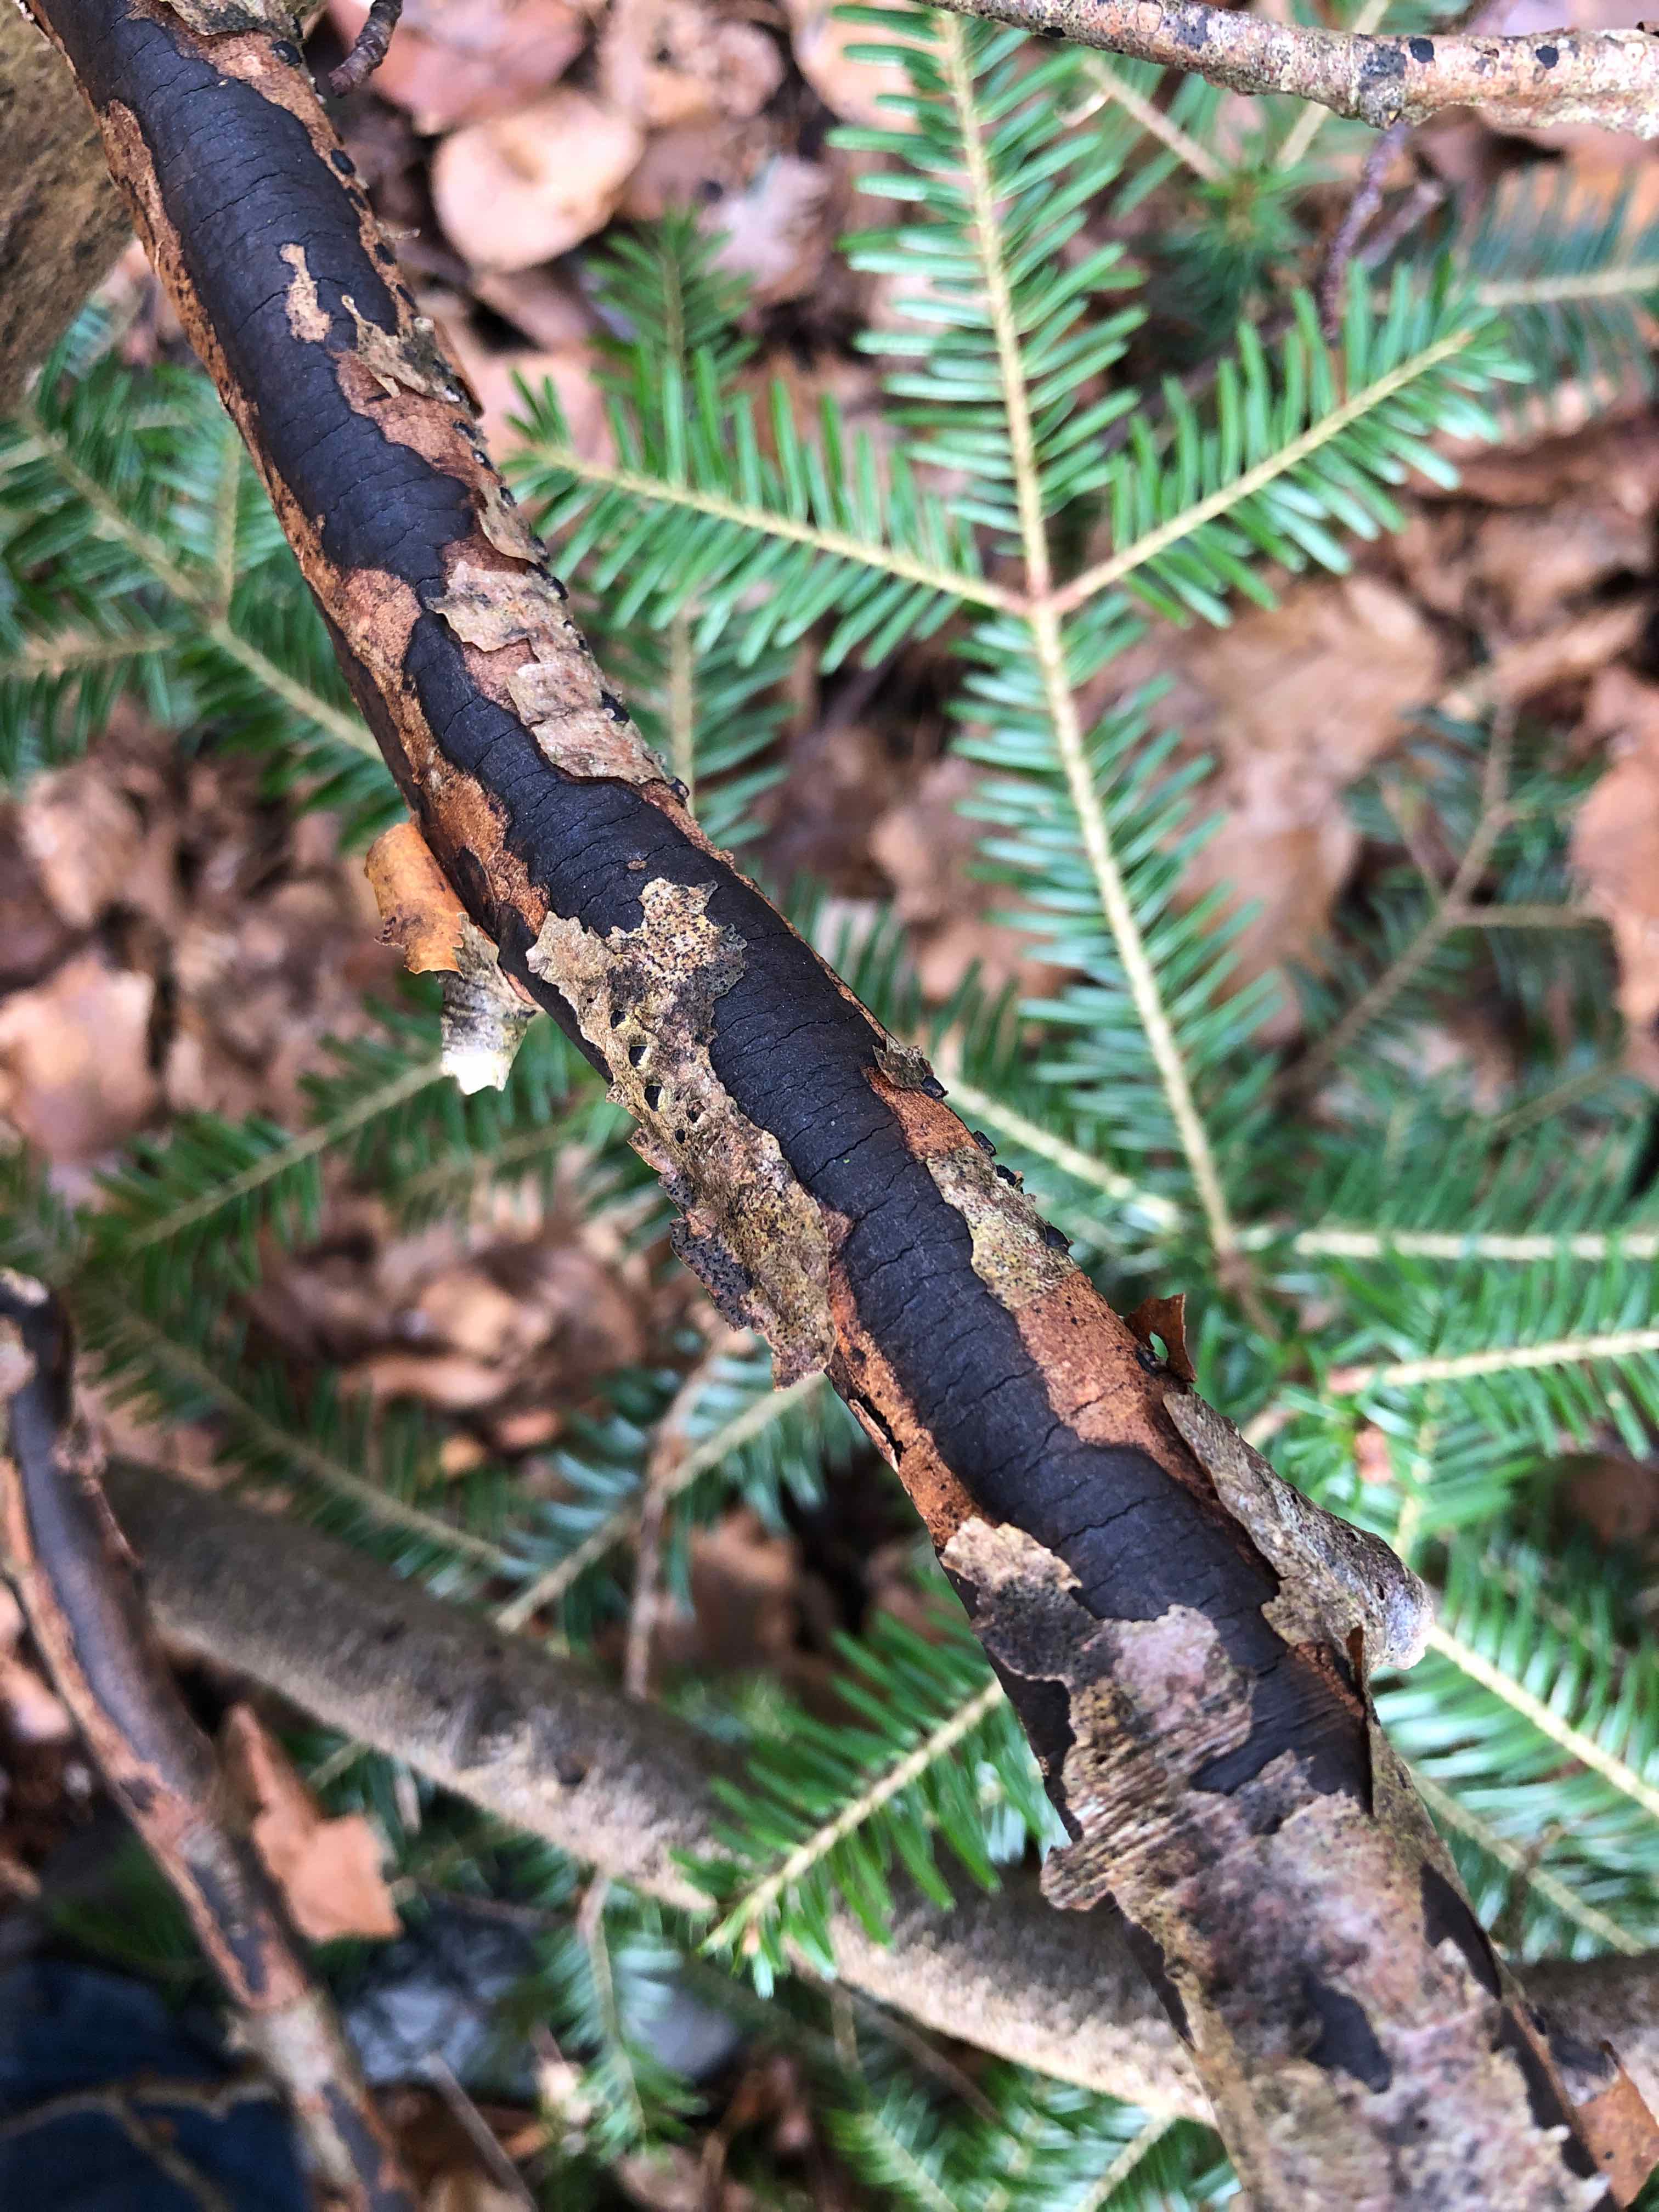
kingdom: Fungi
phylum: Ascomycota
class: Sordariomycetes
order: Xylariales
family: Diatrypaceae
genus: Diatrype
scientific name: Diatrype decorticata
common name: barksprænger-kulskorpe
